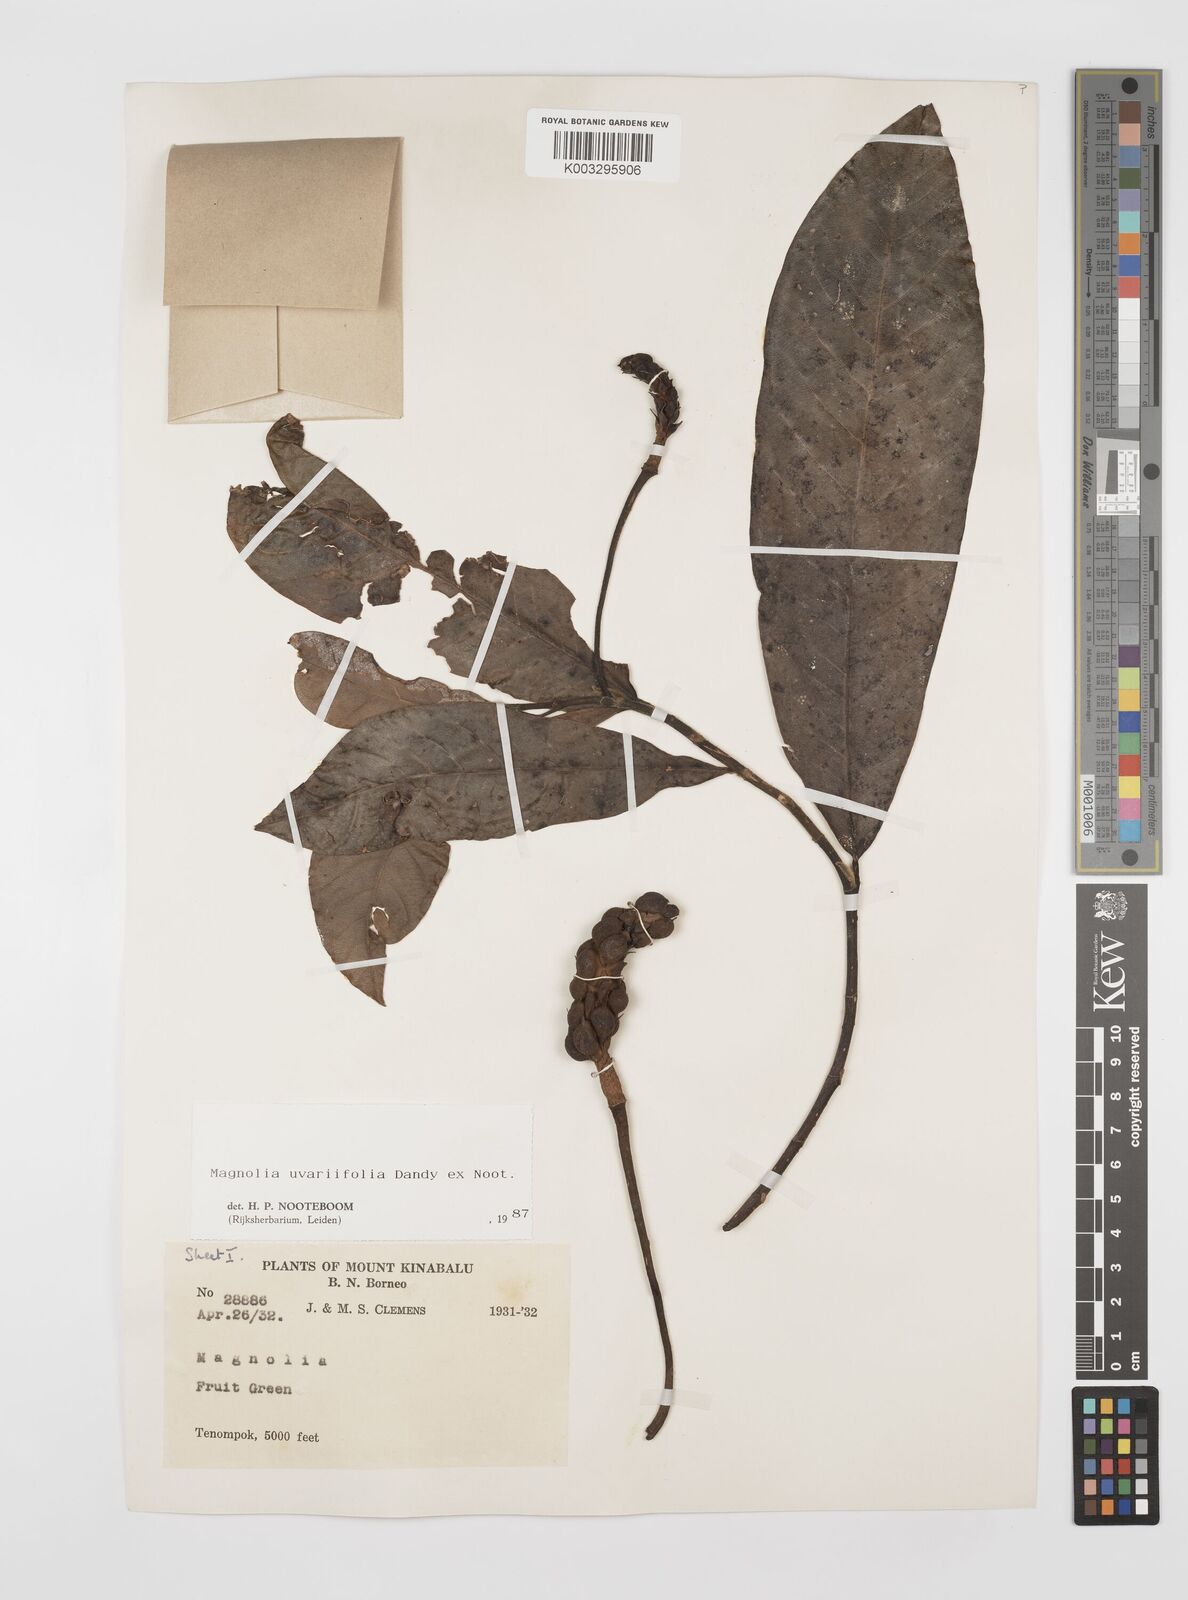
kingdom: Plantae
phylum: Tracheophyta
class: Magnoliopsida
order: Magnoliales
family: Magnoliaceae
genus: Magnolia
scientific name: Magnolia macklottii
